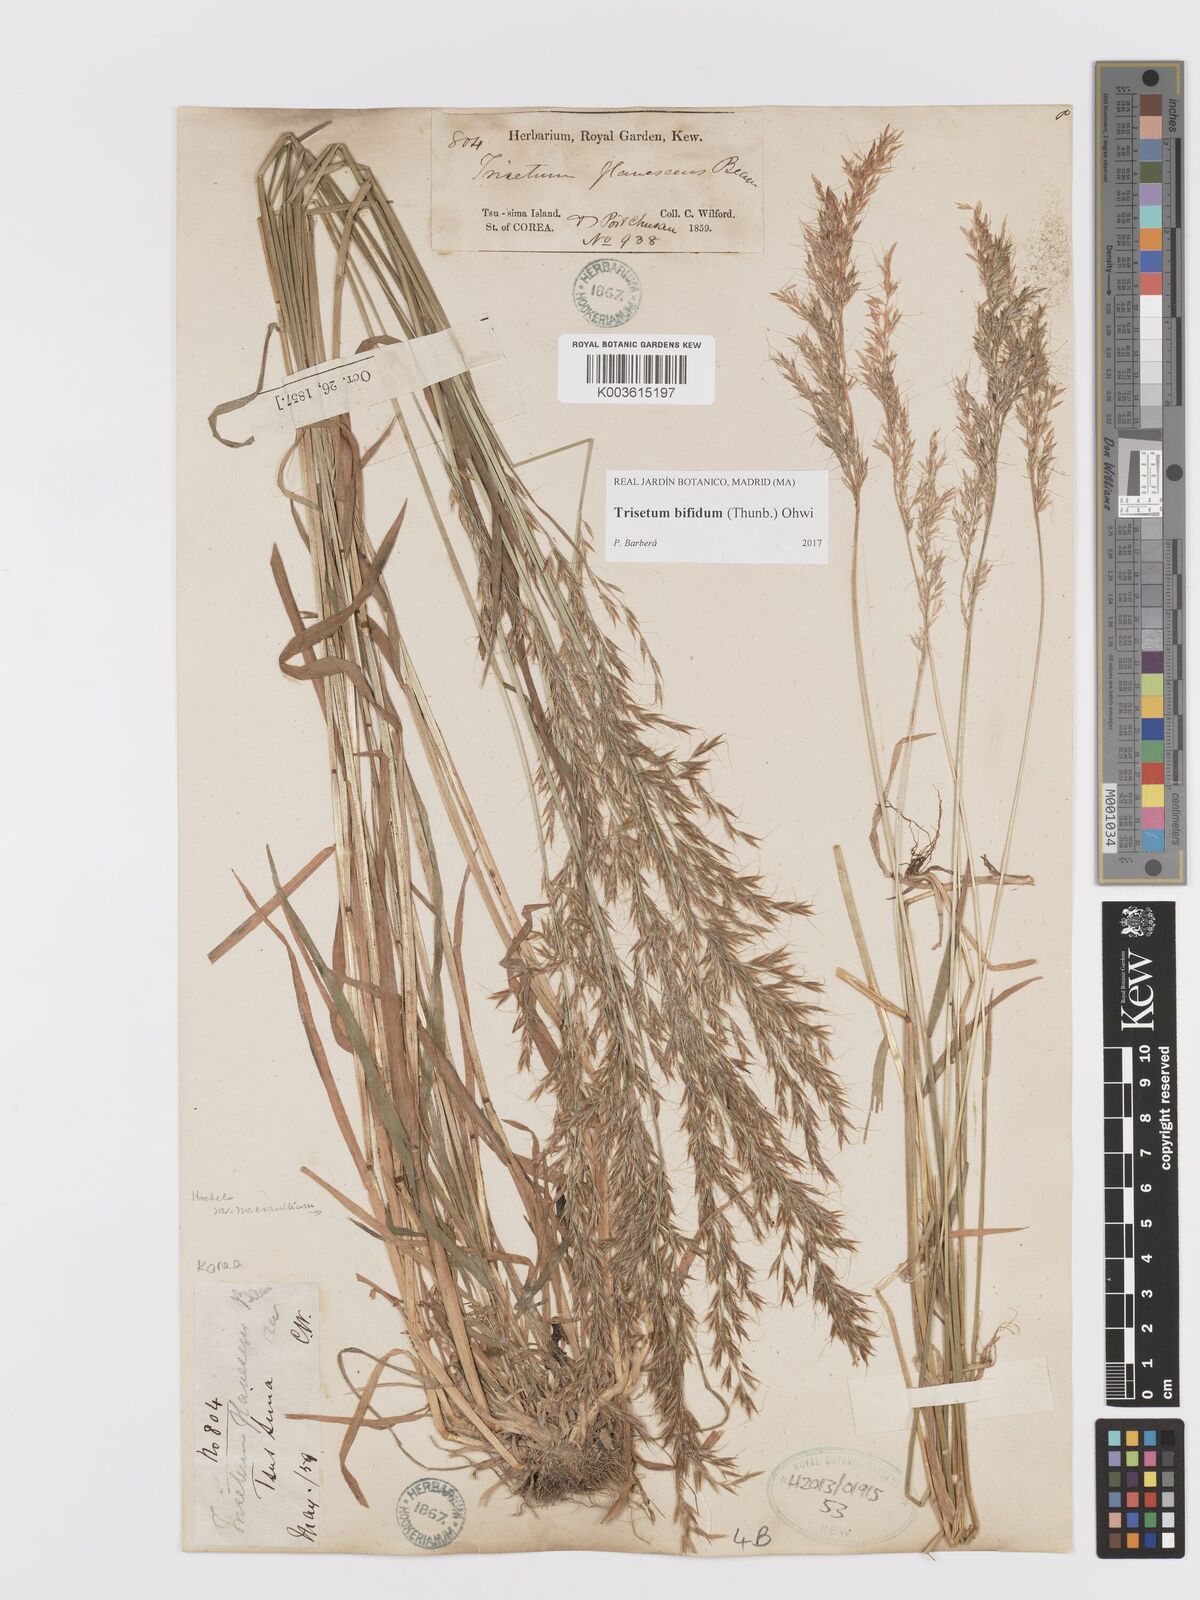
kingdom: Plantae
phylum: Tracheophyta
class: Liliopsida
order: Poales
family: Poaceae
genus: Sibirotrisetum
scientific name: Sibirotrisetum bifidum
